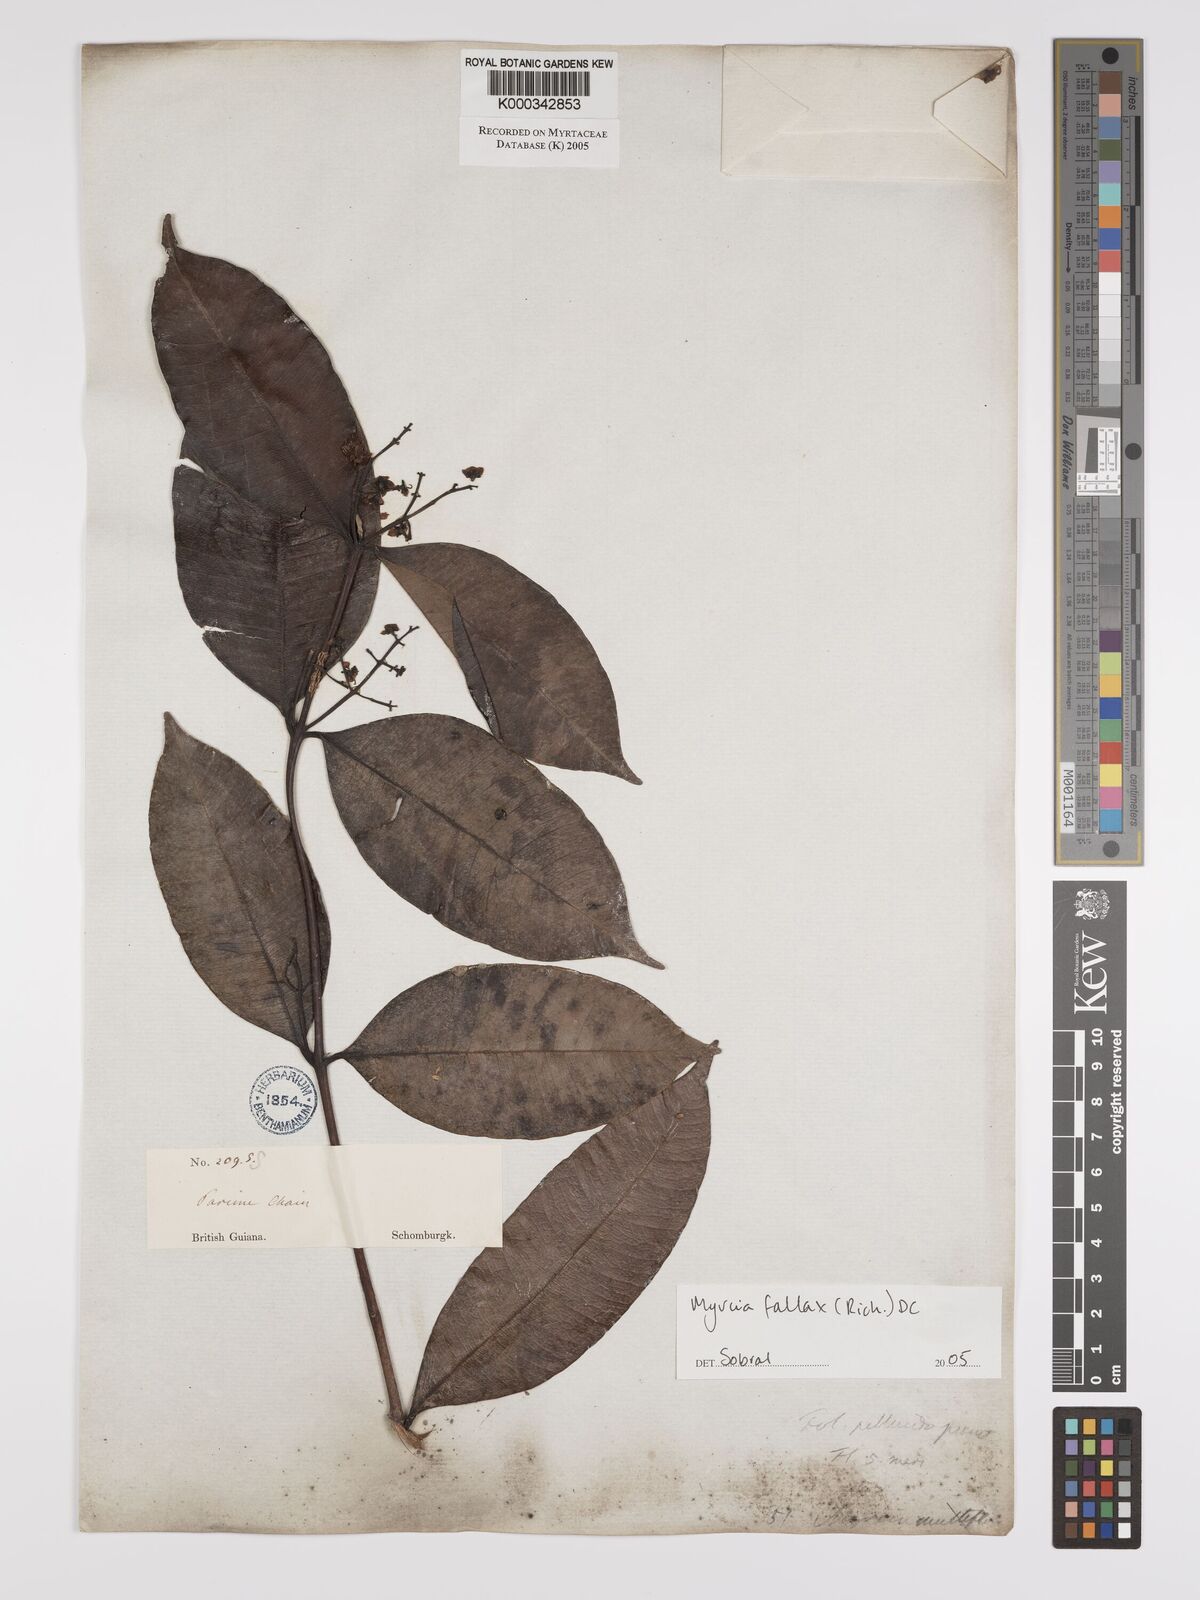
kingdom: Plantae
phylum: Tracheophyta
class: Magnoliopsida
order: Myrtales
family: Myrtaceae
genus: Myrcia
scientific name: Myrcia splendens
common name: Surinam cherry
